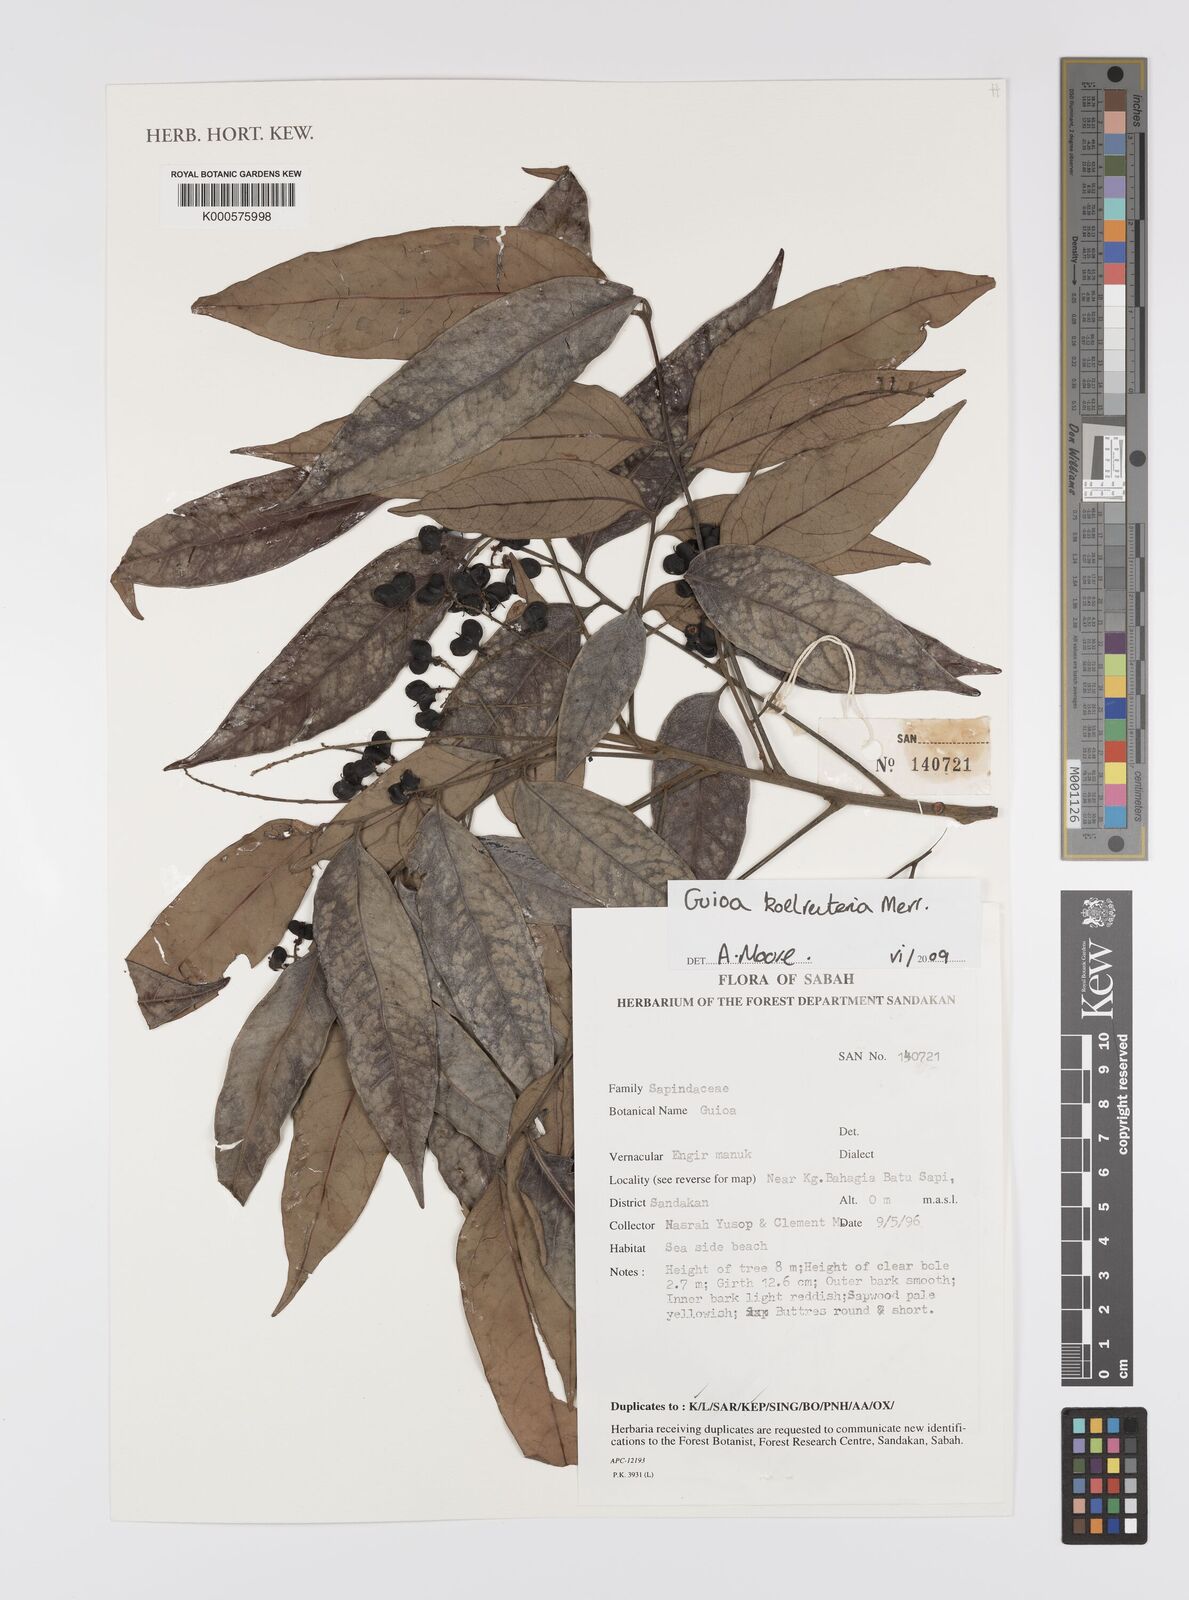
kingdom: Plantae
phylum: Tracheophyta
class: Magnoliopsida
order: Sapindales
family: Sapindaceae
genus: Guioa
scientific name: Guioa koelreuteria
